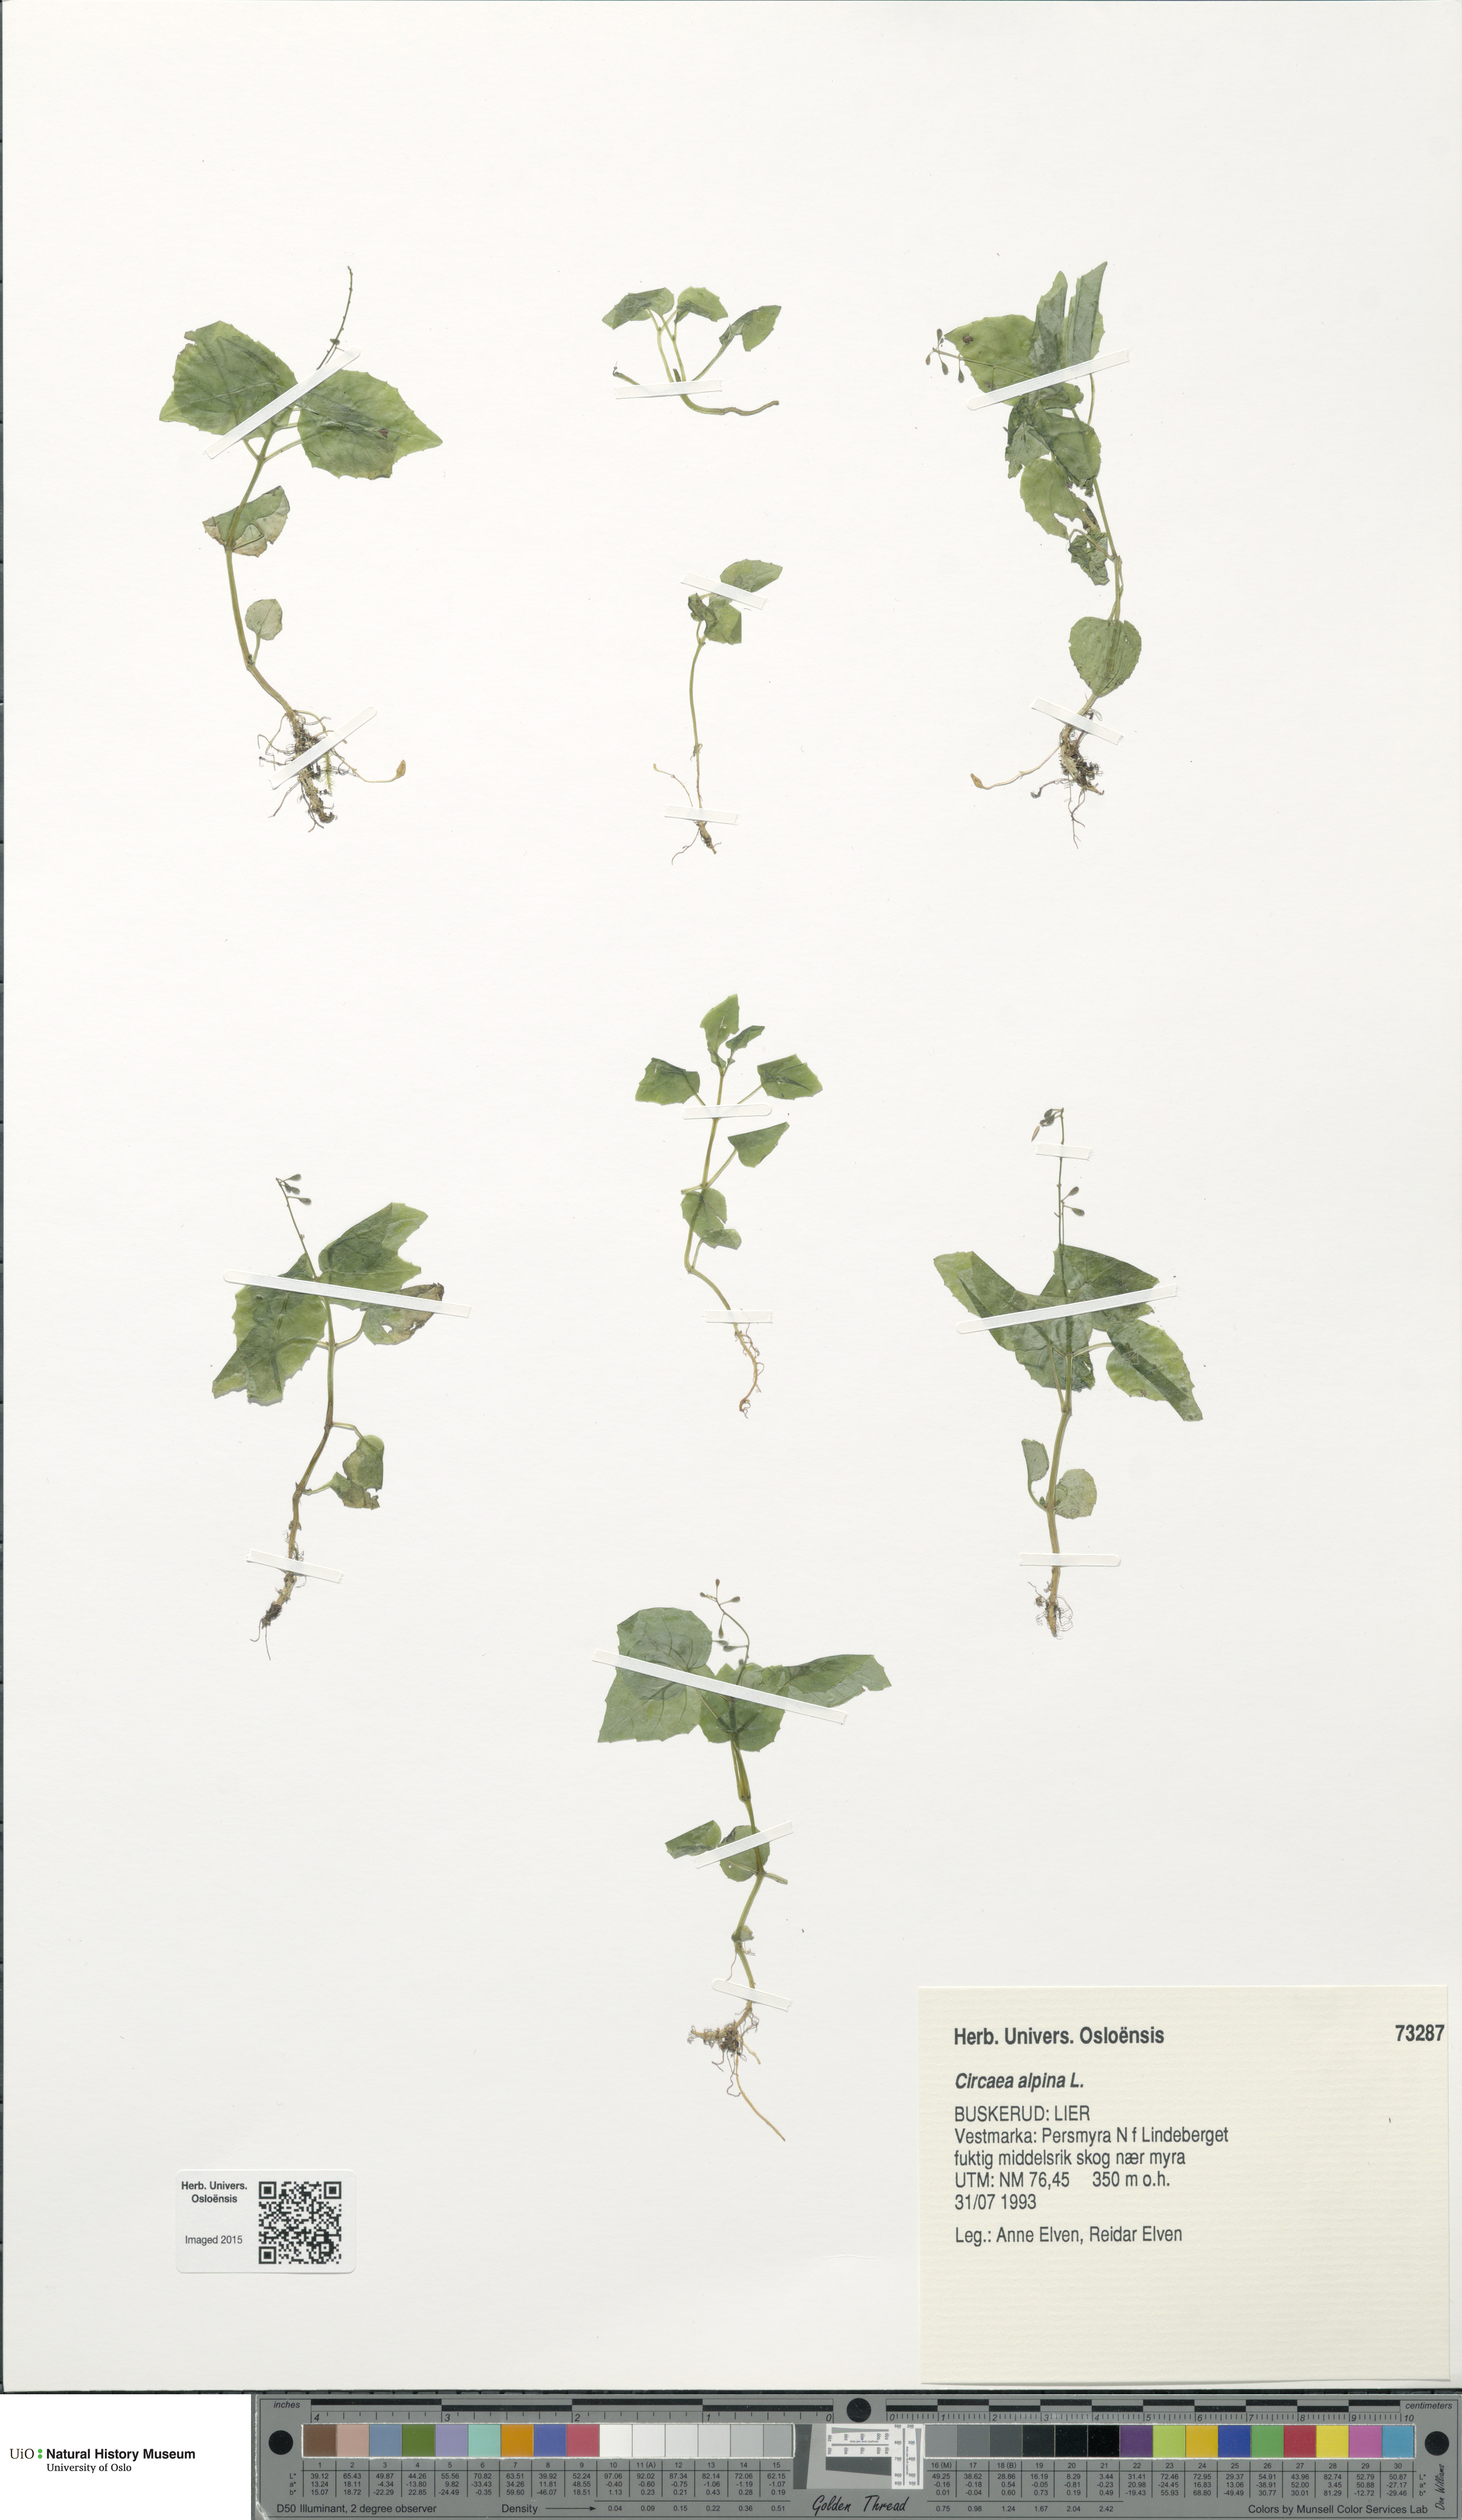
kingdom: Plantae
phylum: Tracheophyta
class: Magnoliopsida
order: Myrtales
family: Onagraceae
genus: Circaea
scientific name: Circaea alpina
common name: Alpine enchanter's-nightshade
